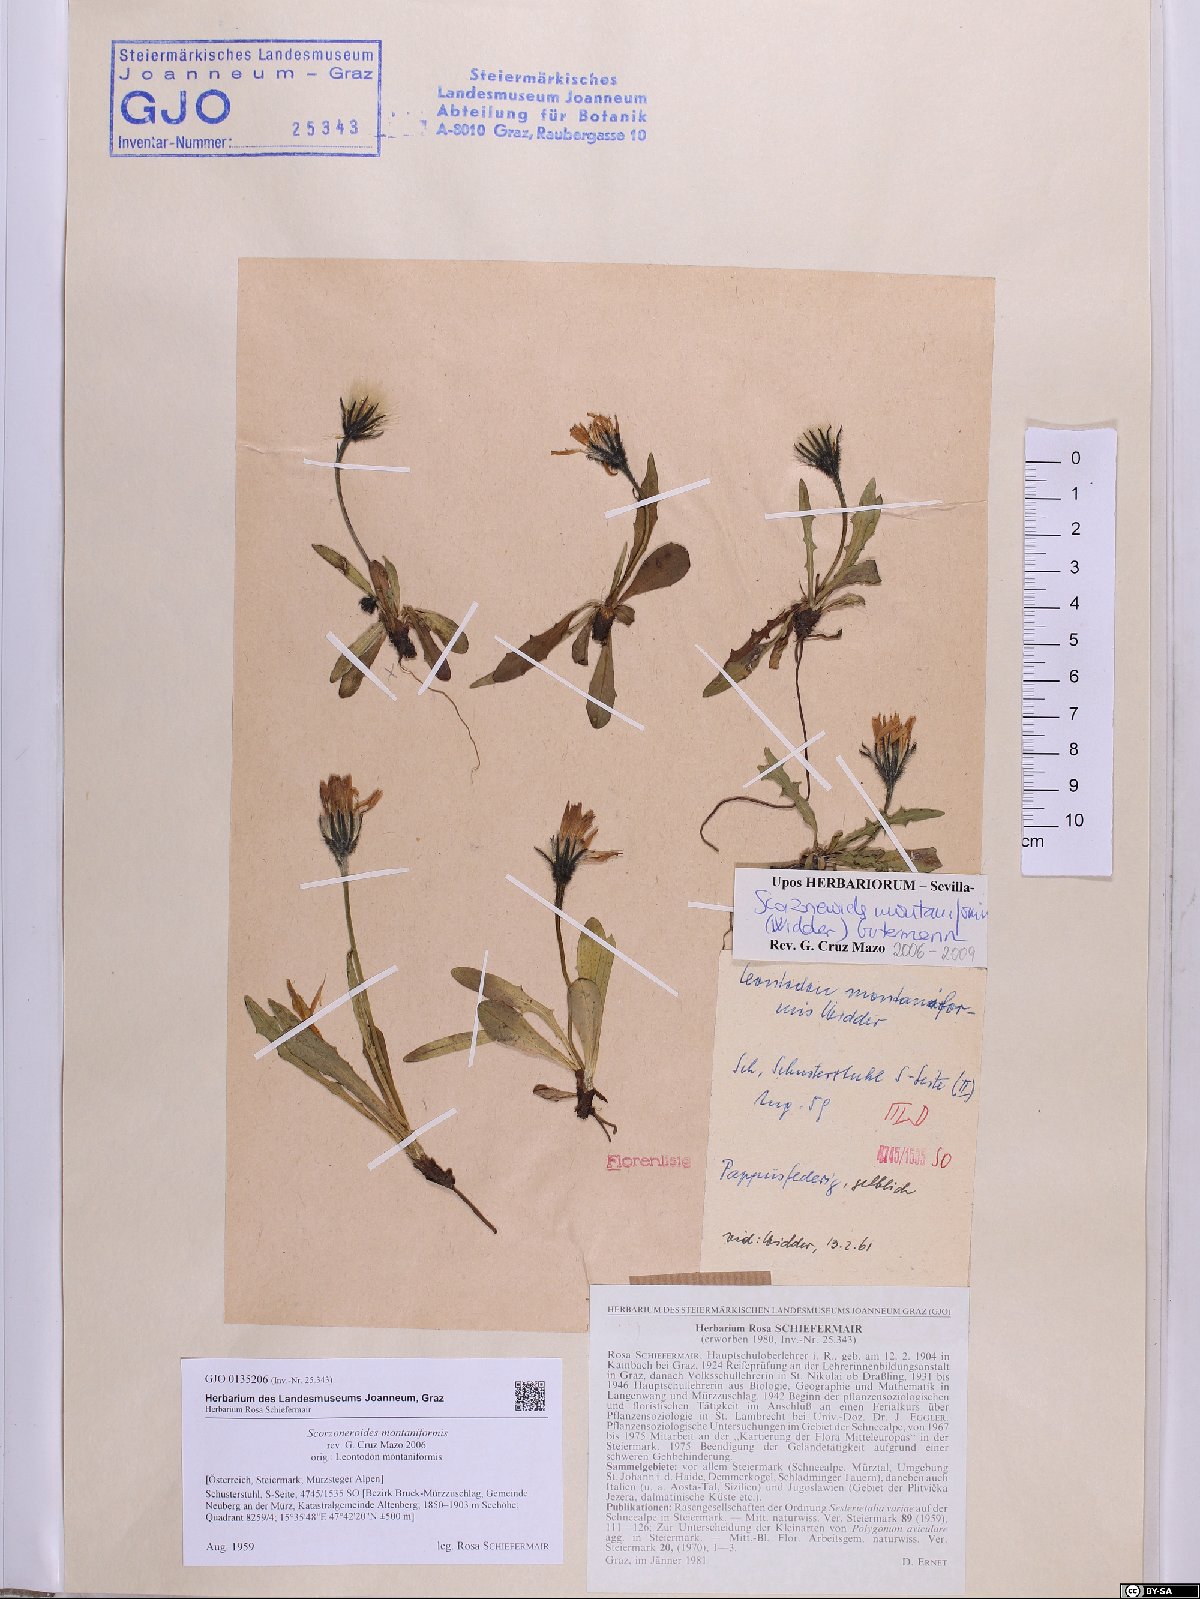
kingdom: Plantae
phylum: Tracheophyta
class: Magnoliopsida
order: Asterales
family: Asteraceae
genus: Scorzoneroides
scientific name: Scorzoneroides montana
